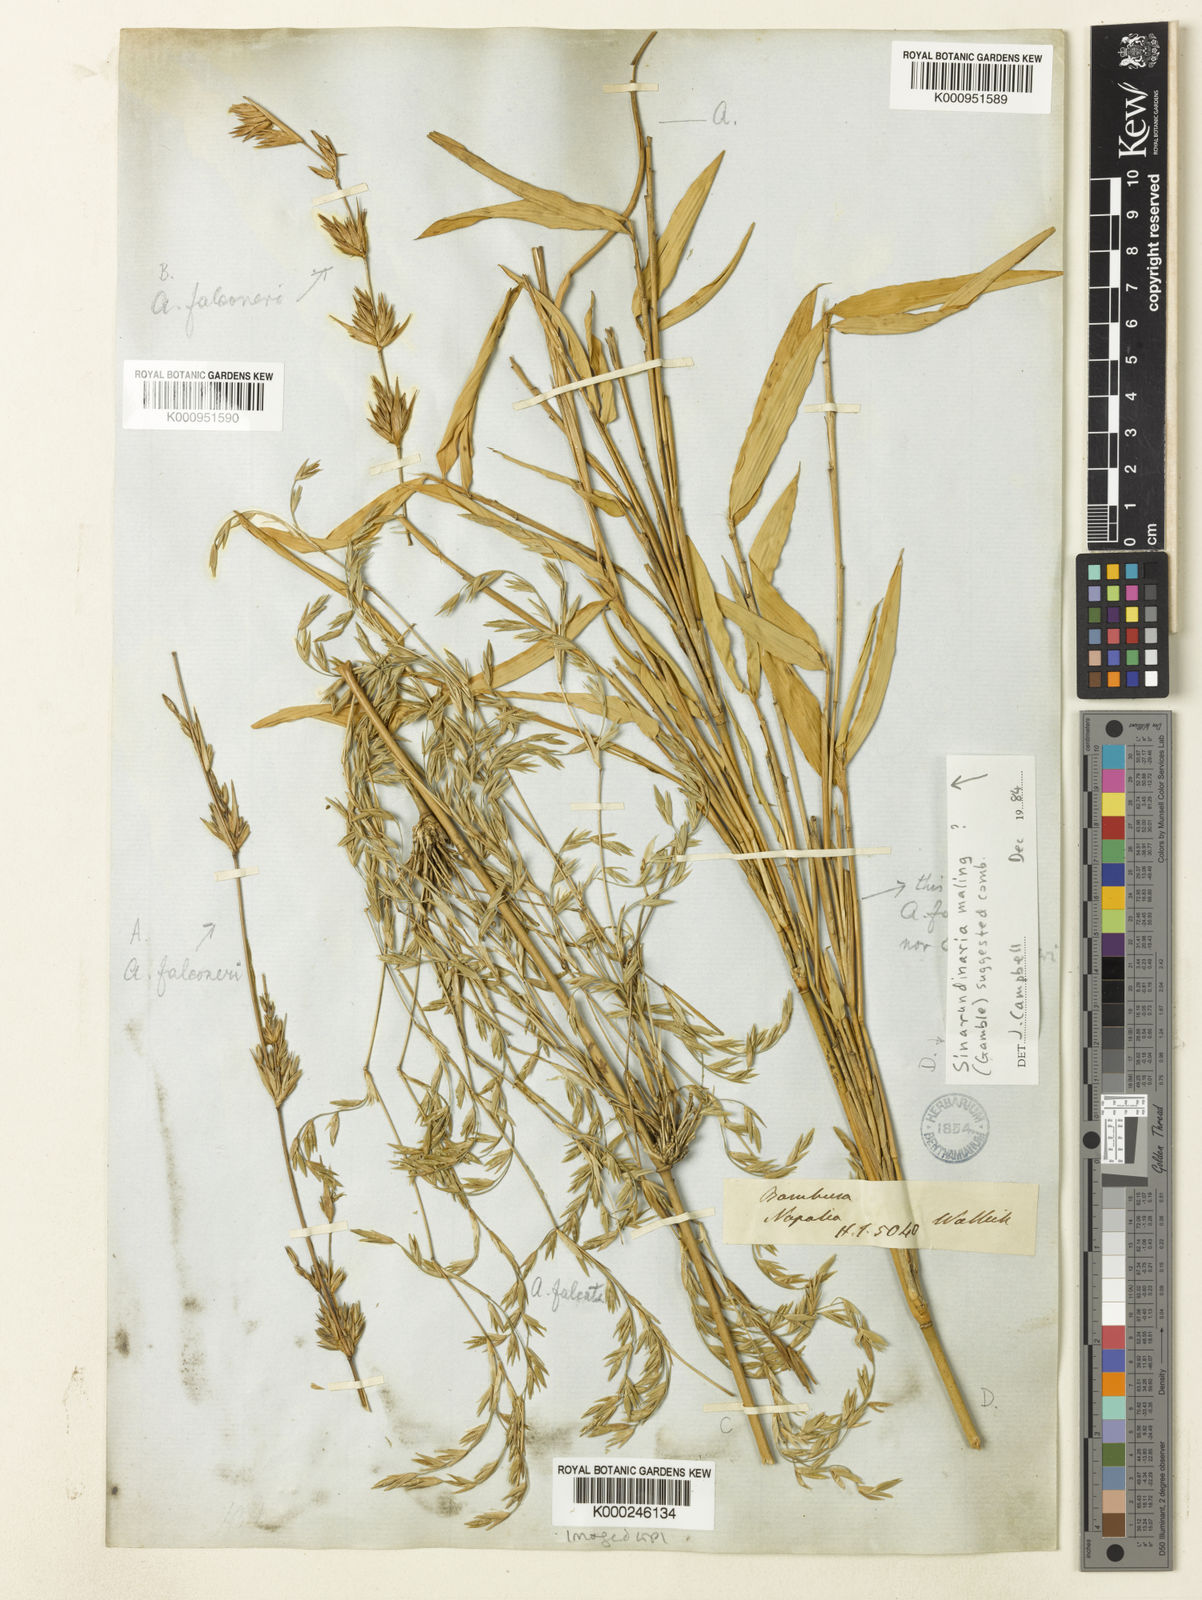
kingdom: Plantae
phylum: Tracheophyta
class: Liliopsida
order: Poales
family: Poaceae
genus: Himalayacalamus
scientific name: Himalayacalamus falconeri
